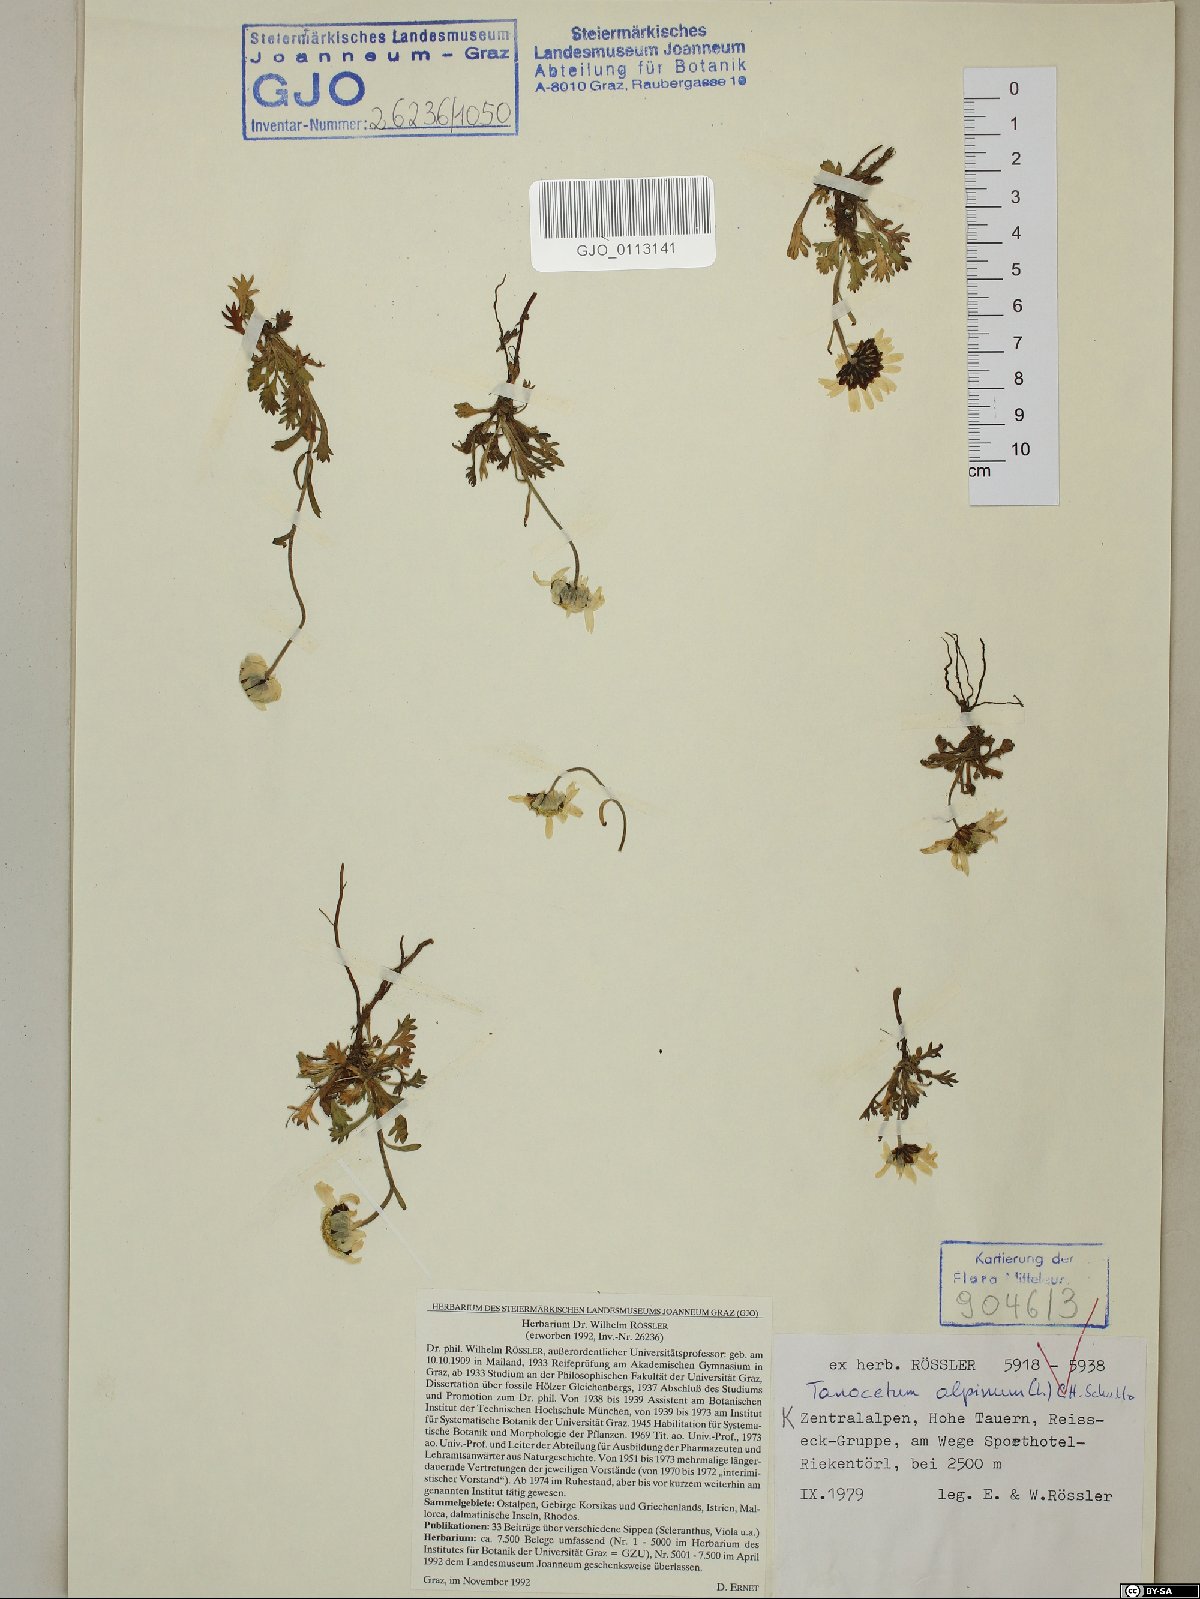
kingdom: Plantae
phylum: Tracheophyta
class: Magnoliopsida
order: Asterales
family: Asteraceae
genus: Leucanthemopsis
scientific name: Leucanthemopsis alpina
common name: Alpine moon daisy
